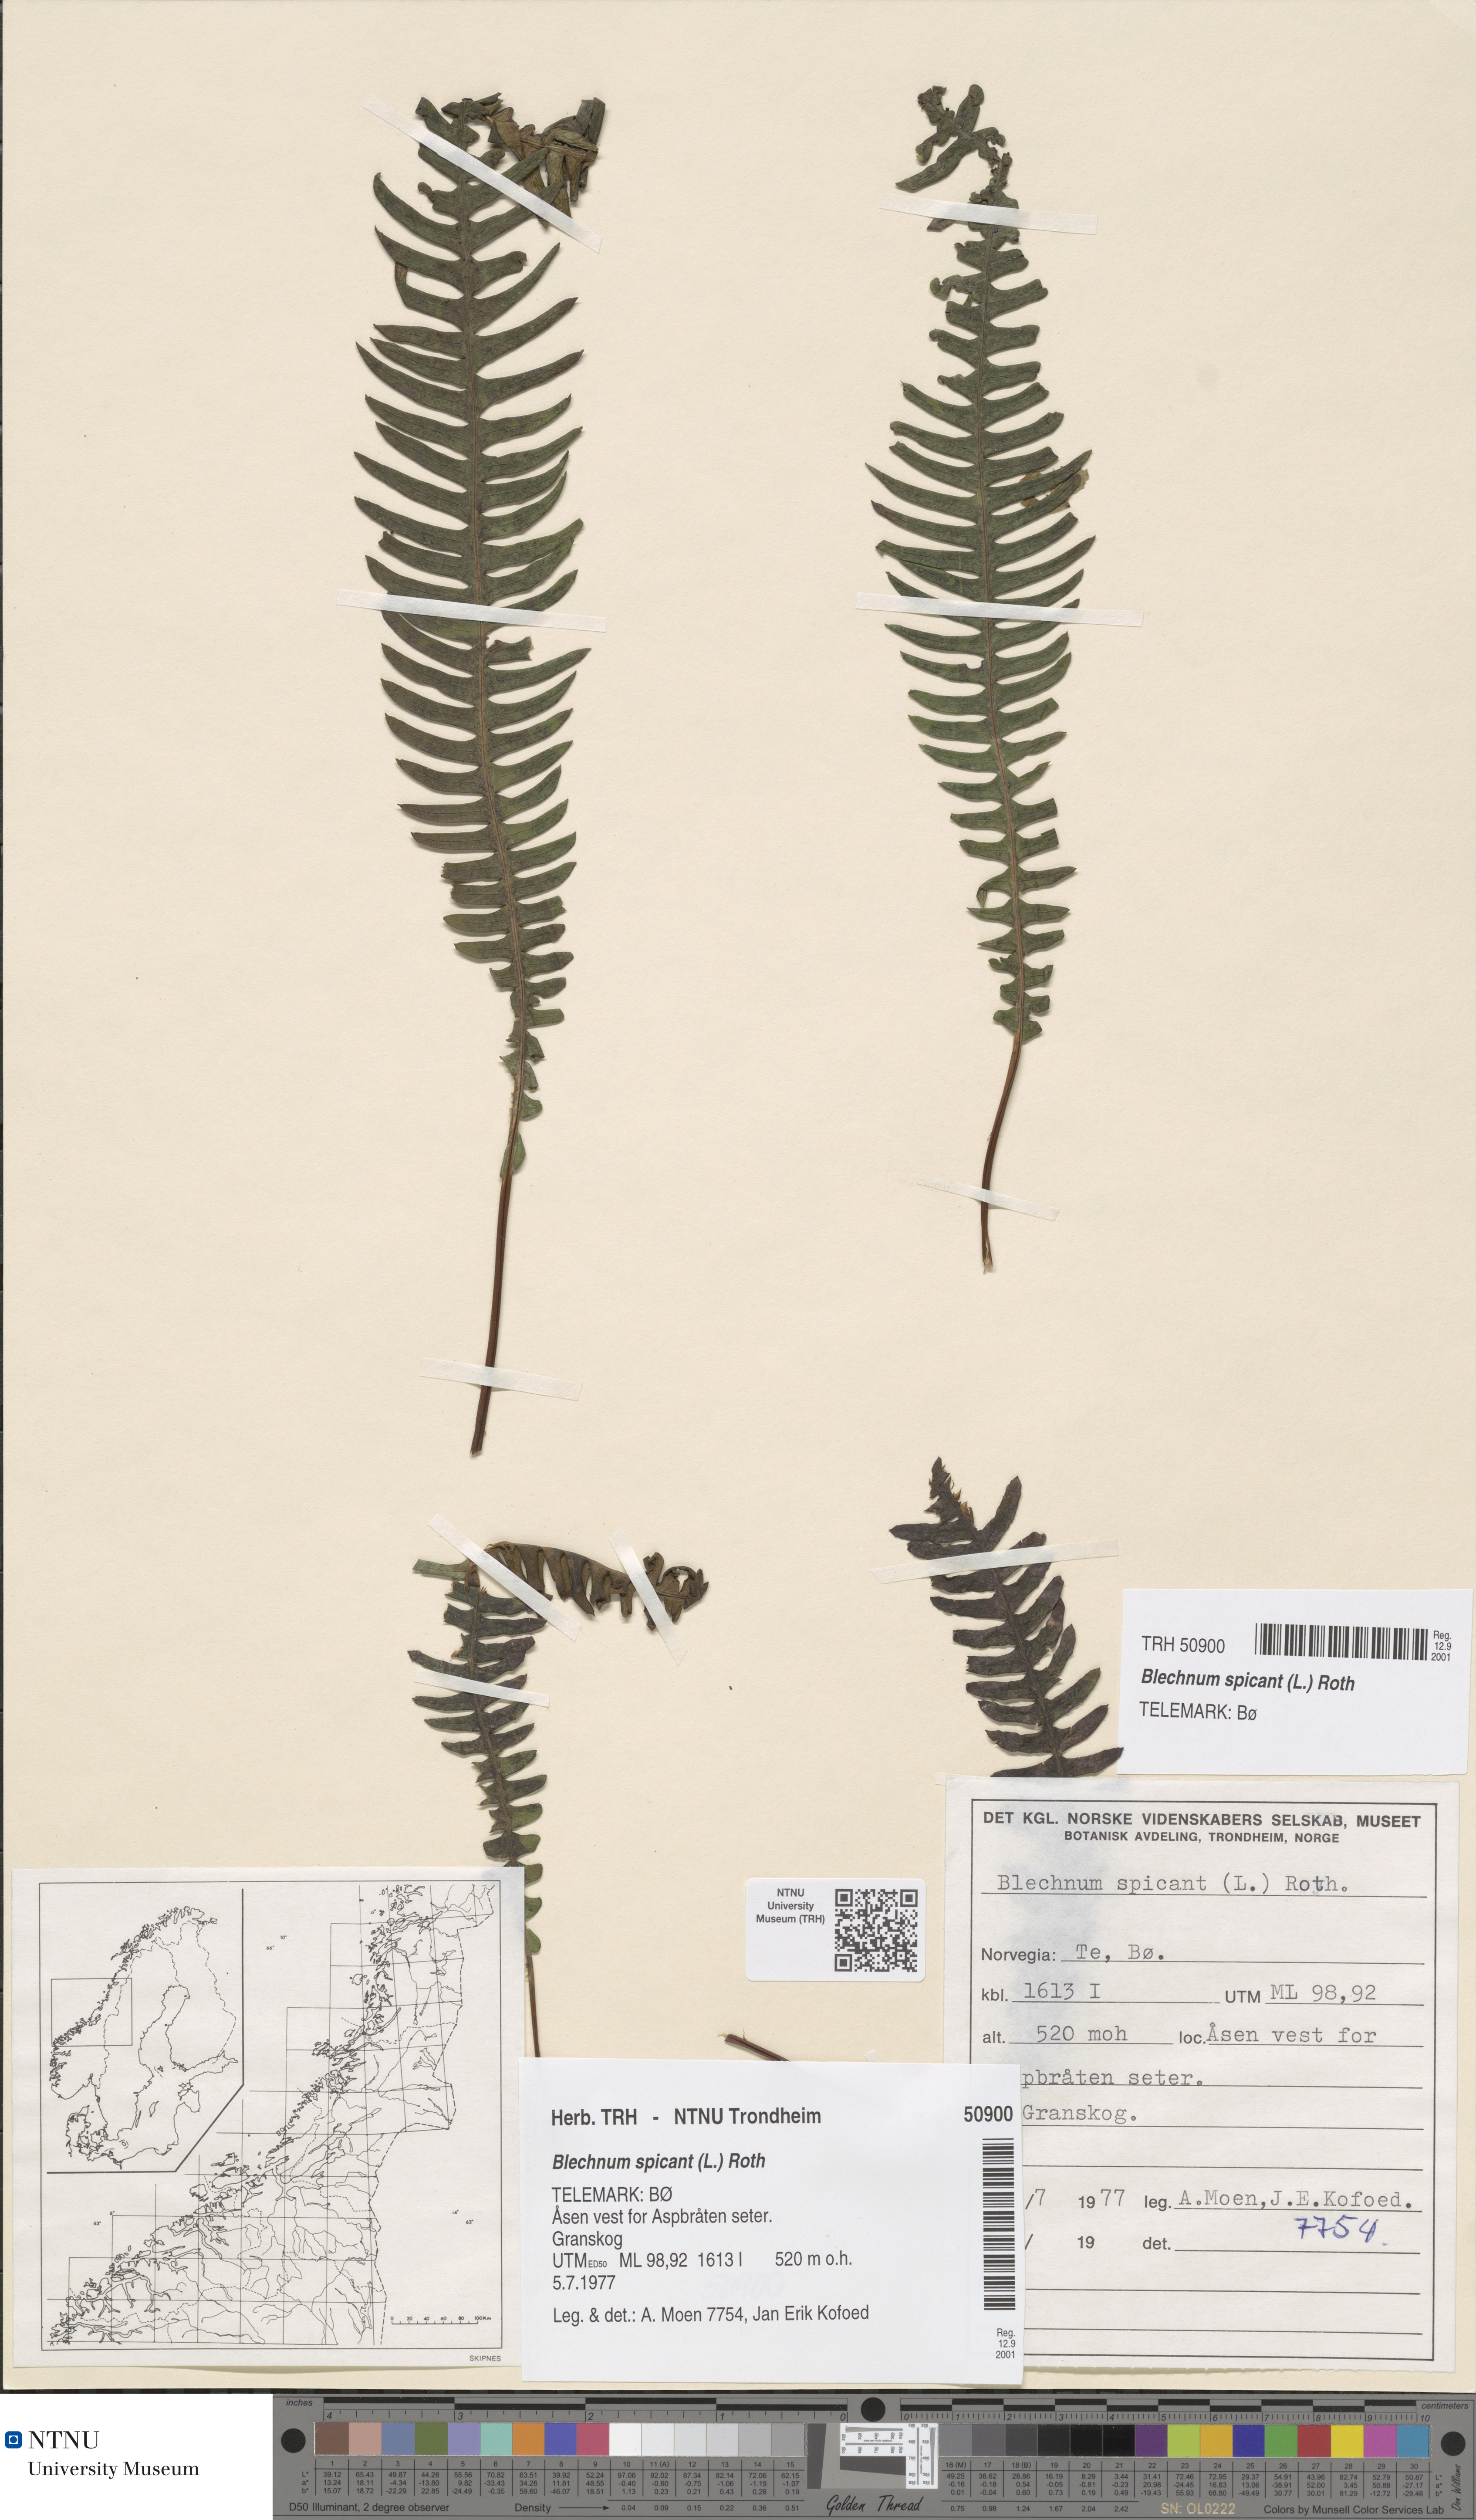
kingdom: Plantae
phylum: Tracheophyta
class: Polypodiopsida
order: Polypodiales
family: Blechnaceae
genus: Struthiopteris
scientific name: Struthiopteris spicant
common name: Deer fern
